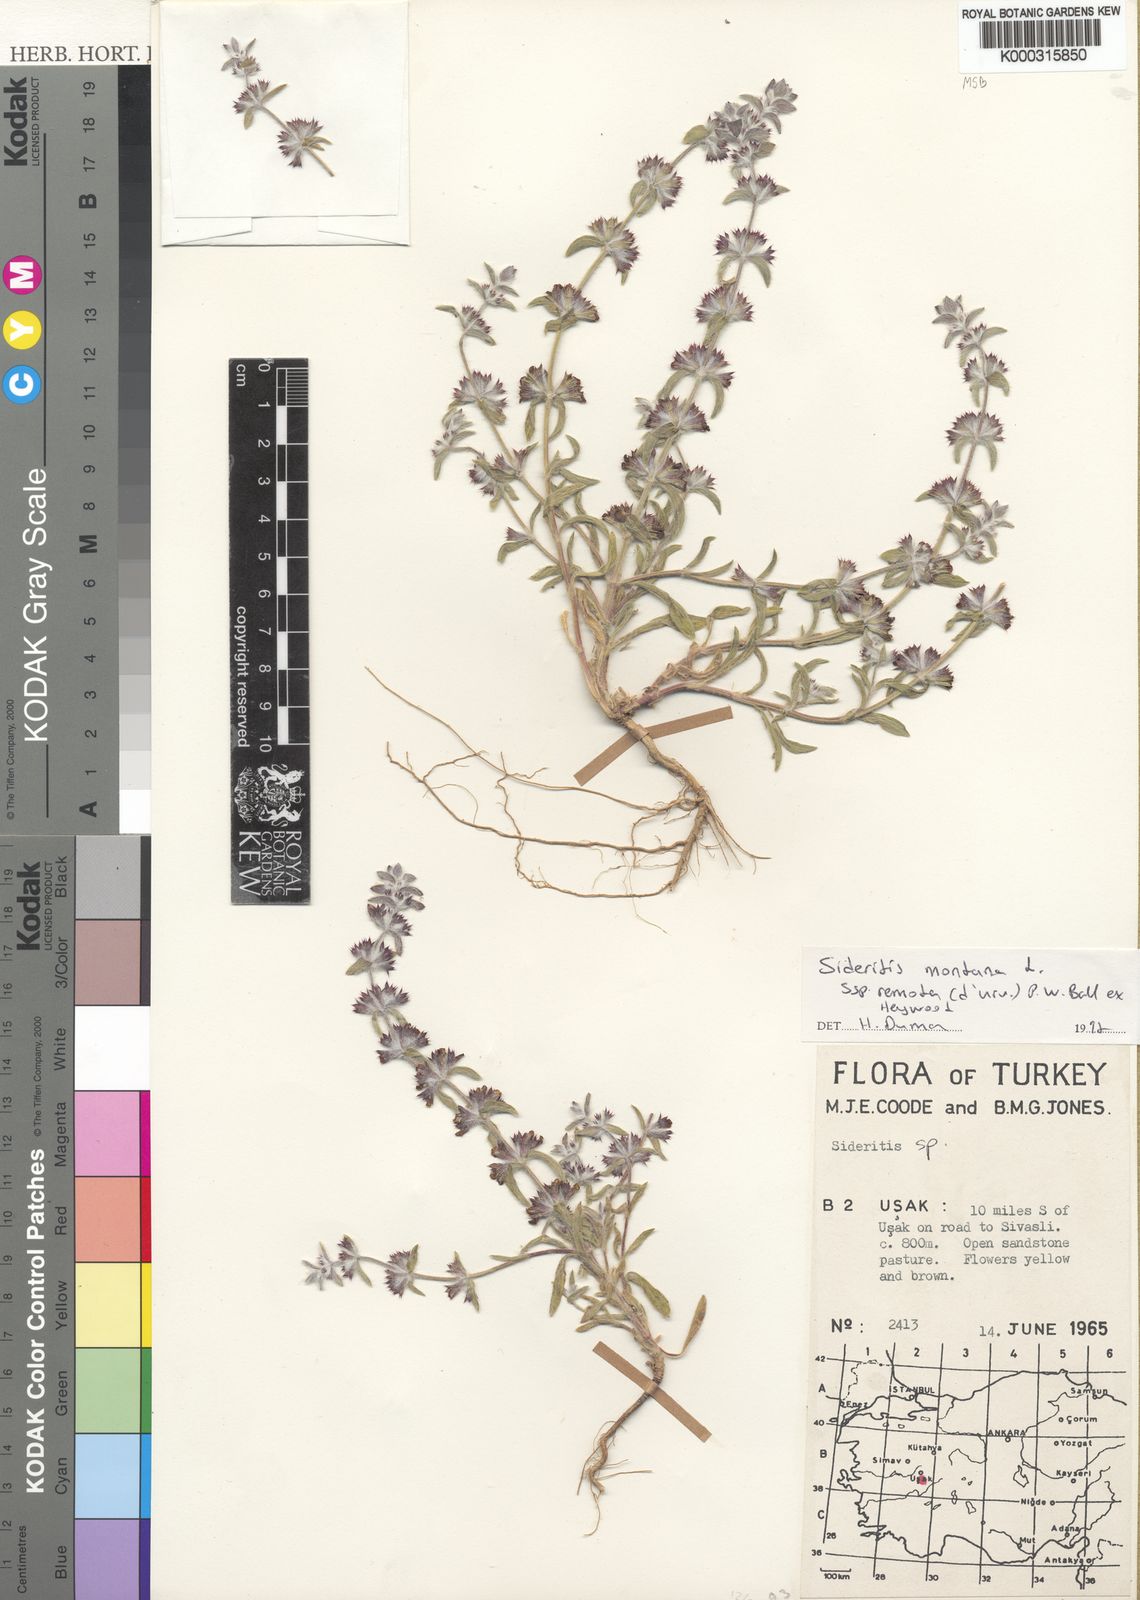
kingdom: Plantae
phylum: Tracheophyta
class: Magnoliopsida
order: Lamiales
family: Lamiaceae
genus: Sideritis
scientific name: Sideritis montana
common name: Mountain ironwort
